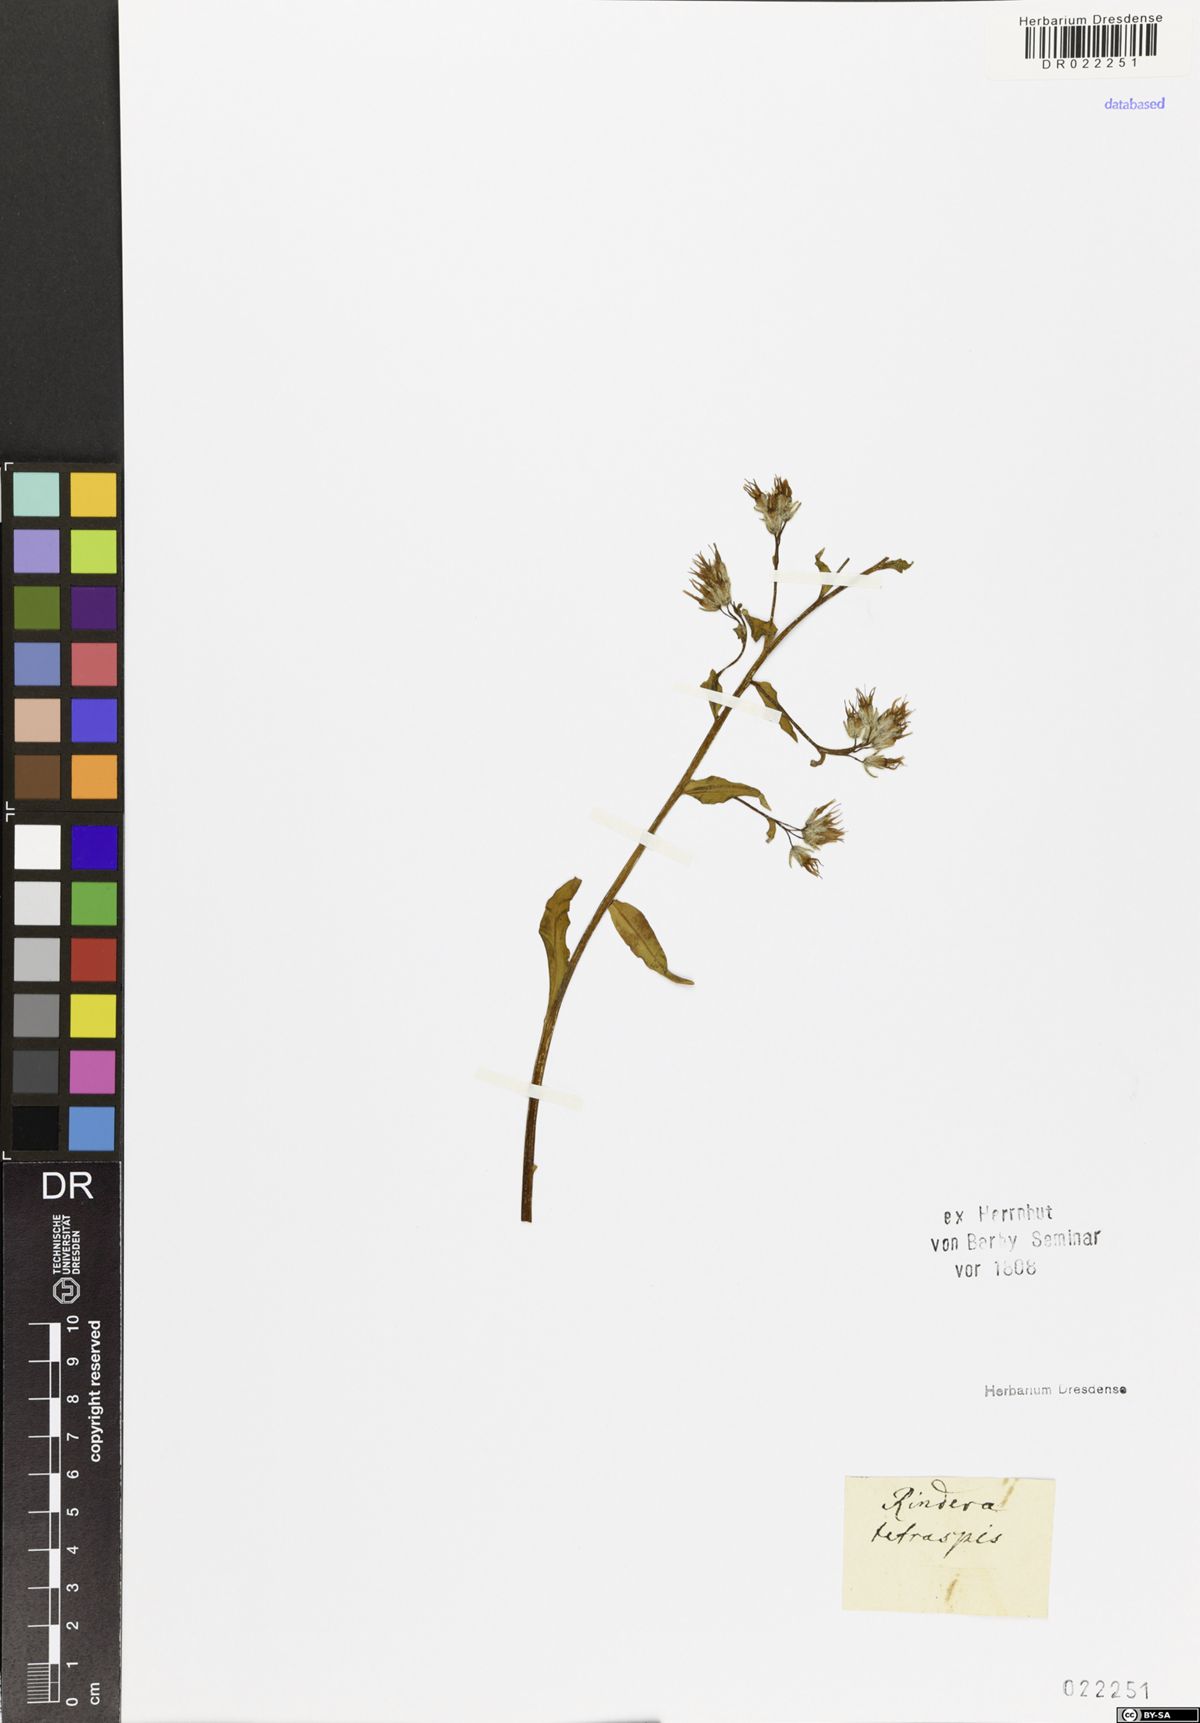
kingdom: Plantae
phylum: Tracheophyta
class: Magnoliopsida
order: Boraginales
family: Boraginaceae
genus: Rindera
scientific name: Rindera tetraspis
